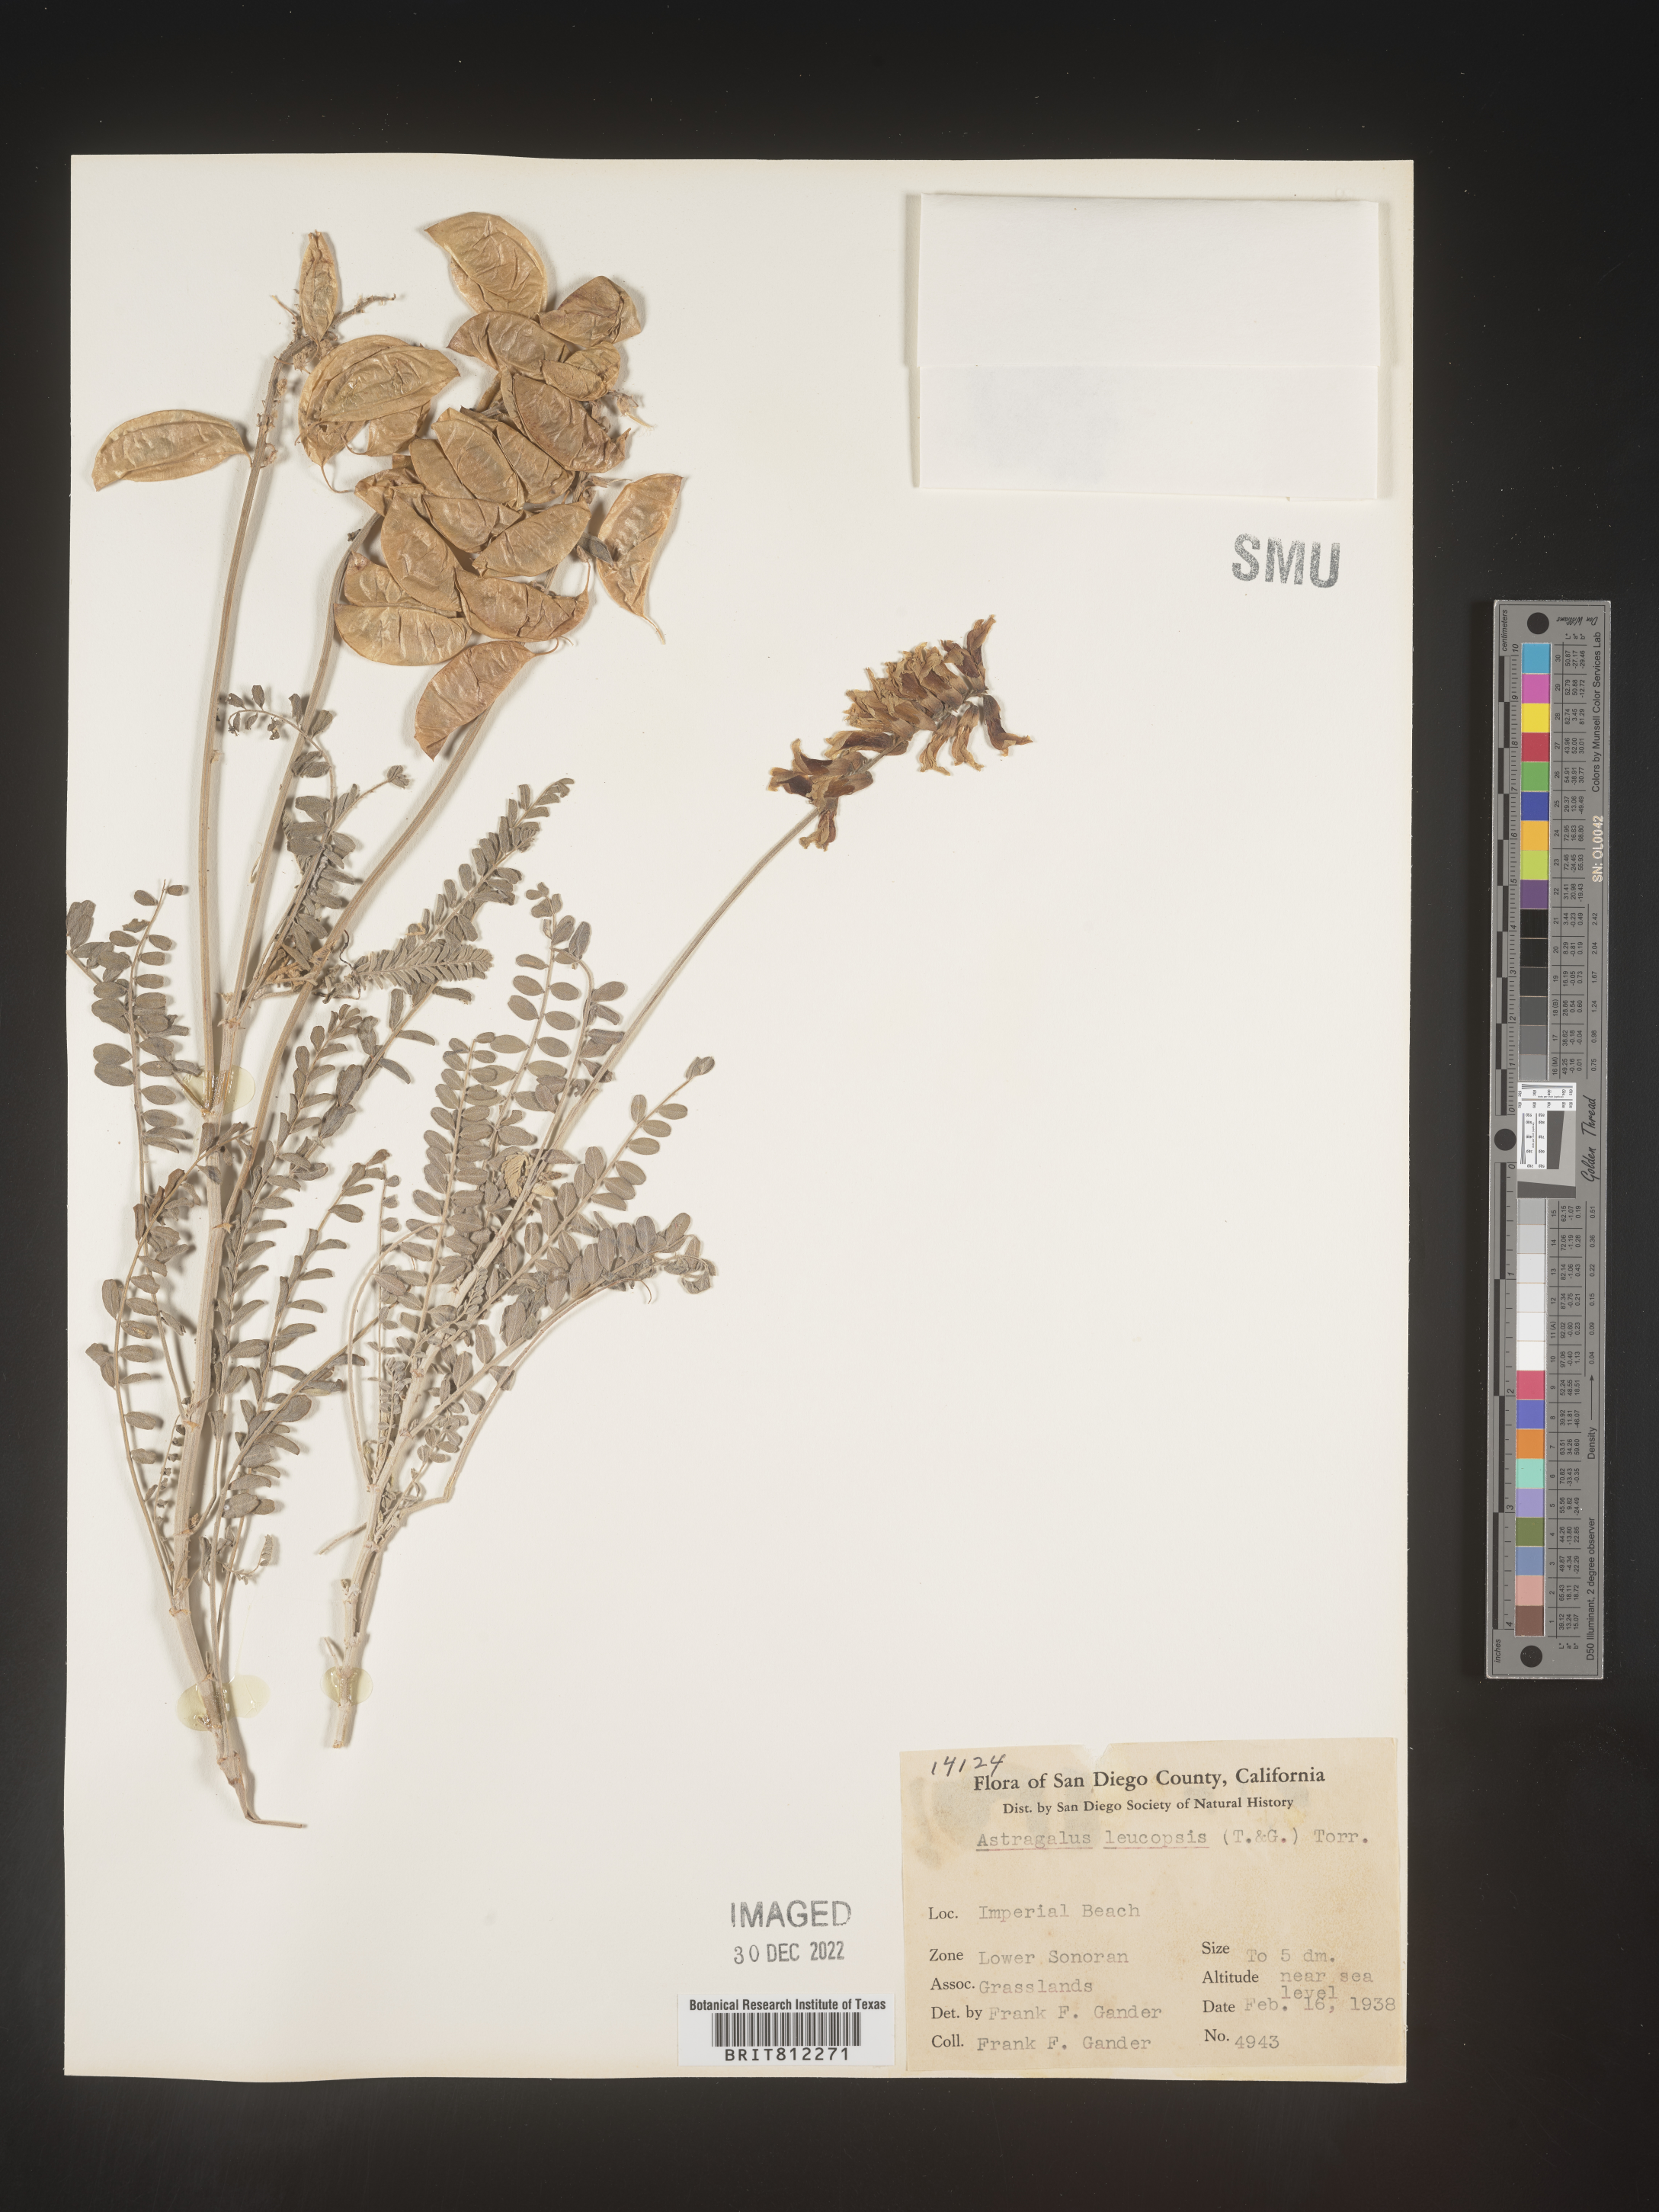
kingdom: Plantae
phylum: Tracheophyta
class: Magnoliopsida
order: Fabales
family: Fabaceae
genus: Astragalus
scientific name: Astragalus
